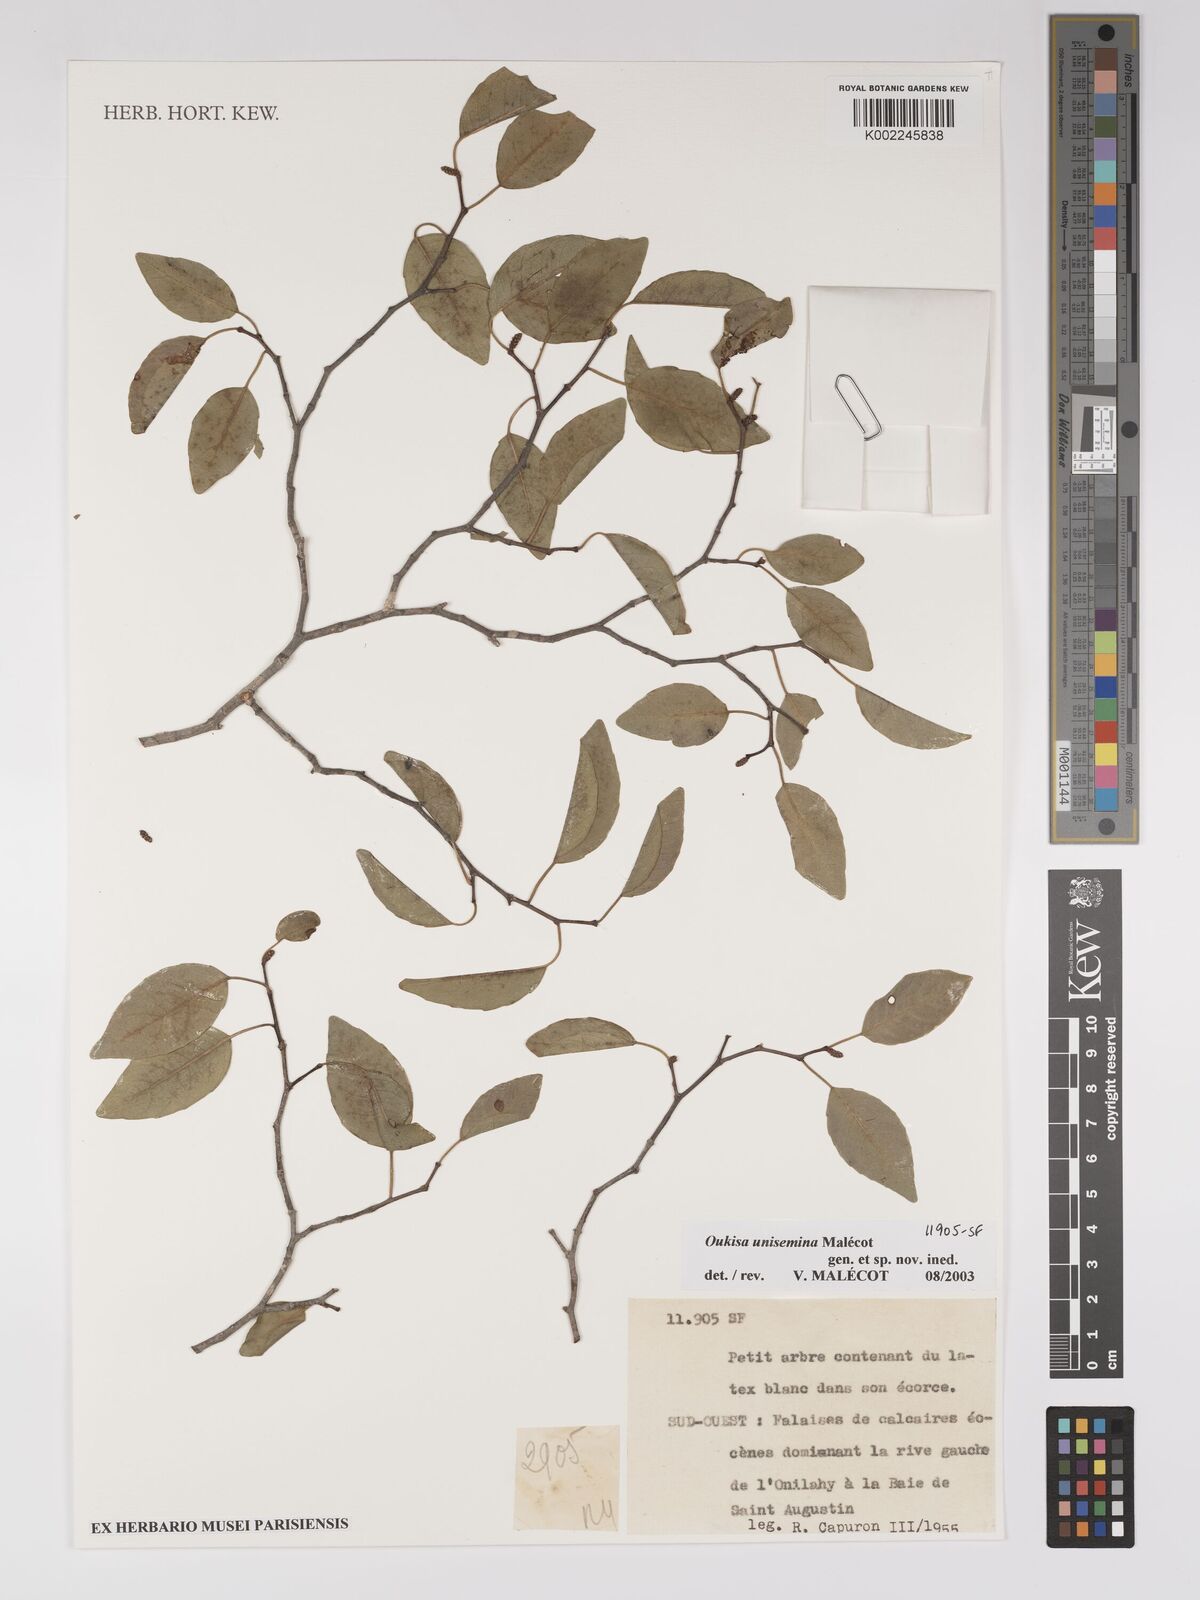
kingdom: Plantae
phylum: Tracheophyta
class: Magnoliopsida
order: Malpighiales
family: Euphorbiaceae
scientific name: Euphorbiaceae
